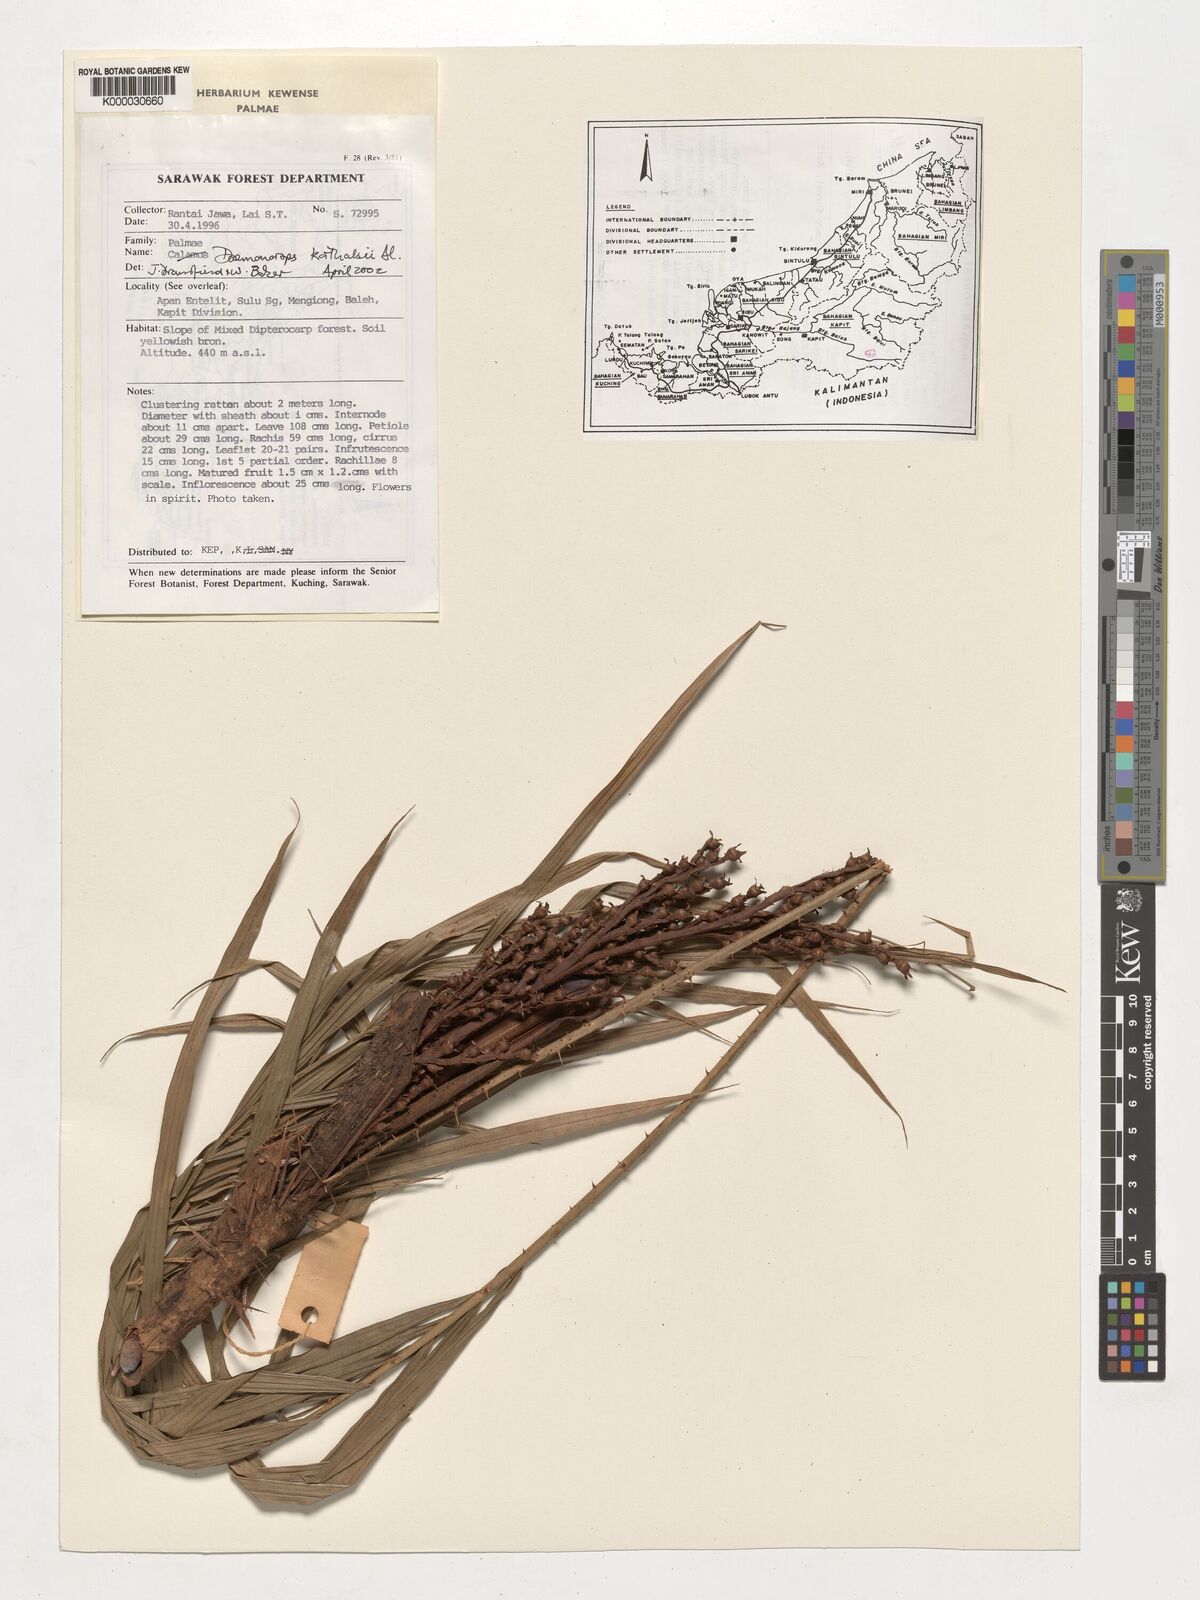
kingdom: Plantae
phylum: Tracheophyta
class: Liliopsida
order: Arecales
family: Arecaceae
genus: Calamus
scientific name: Calamus hirsutus
